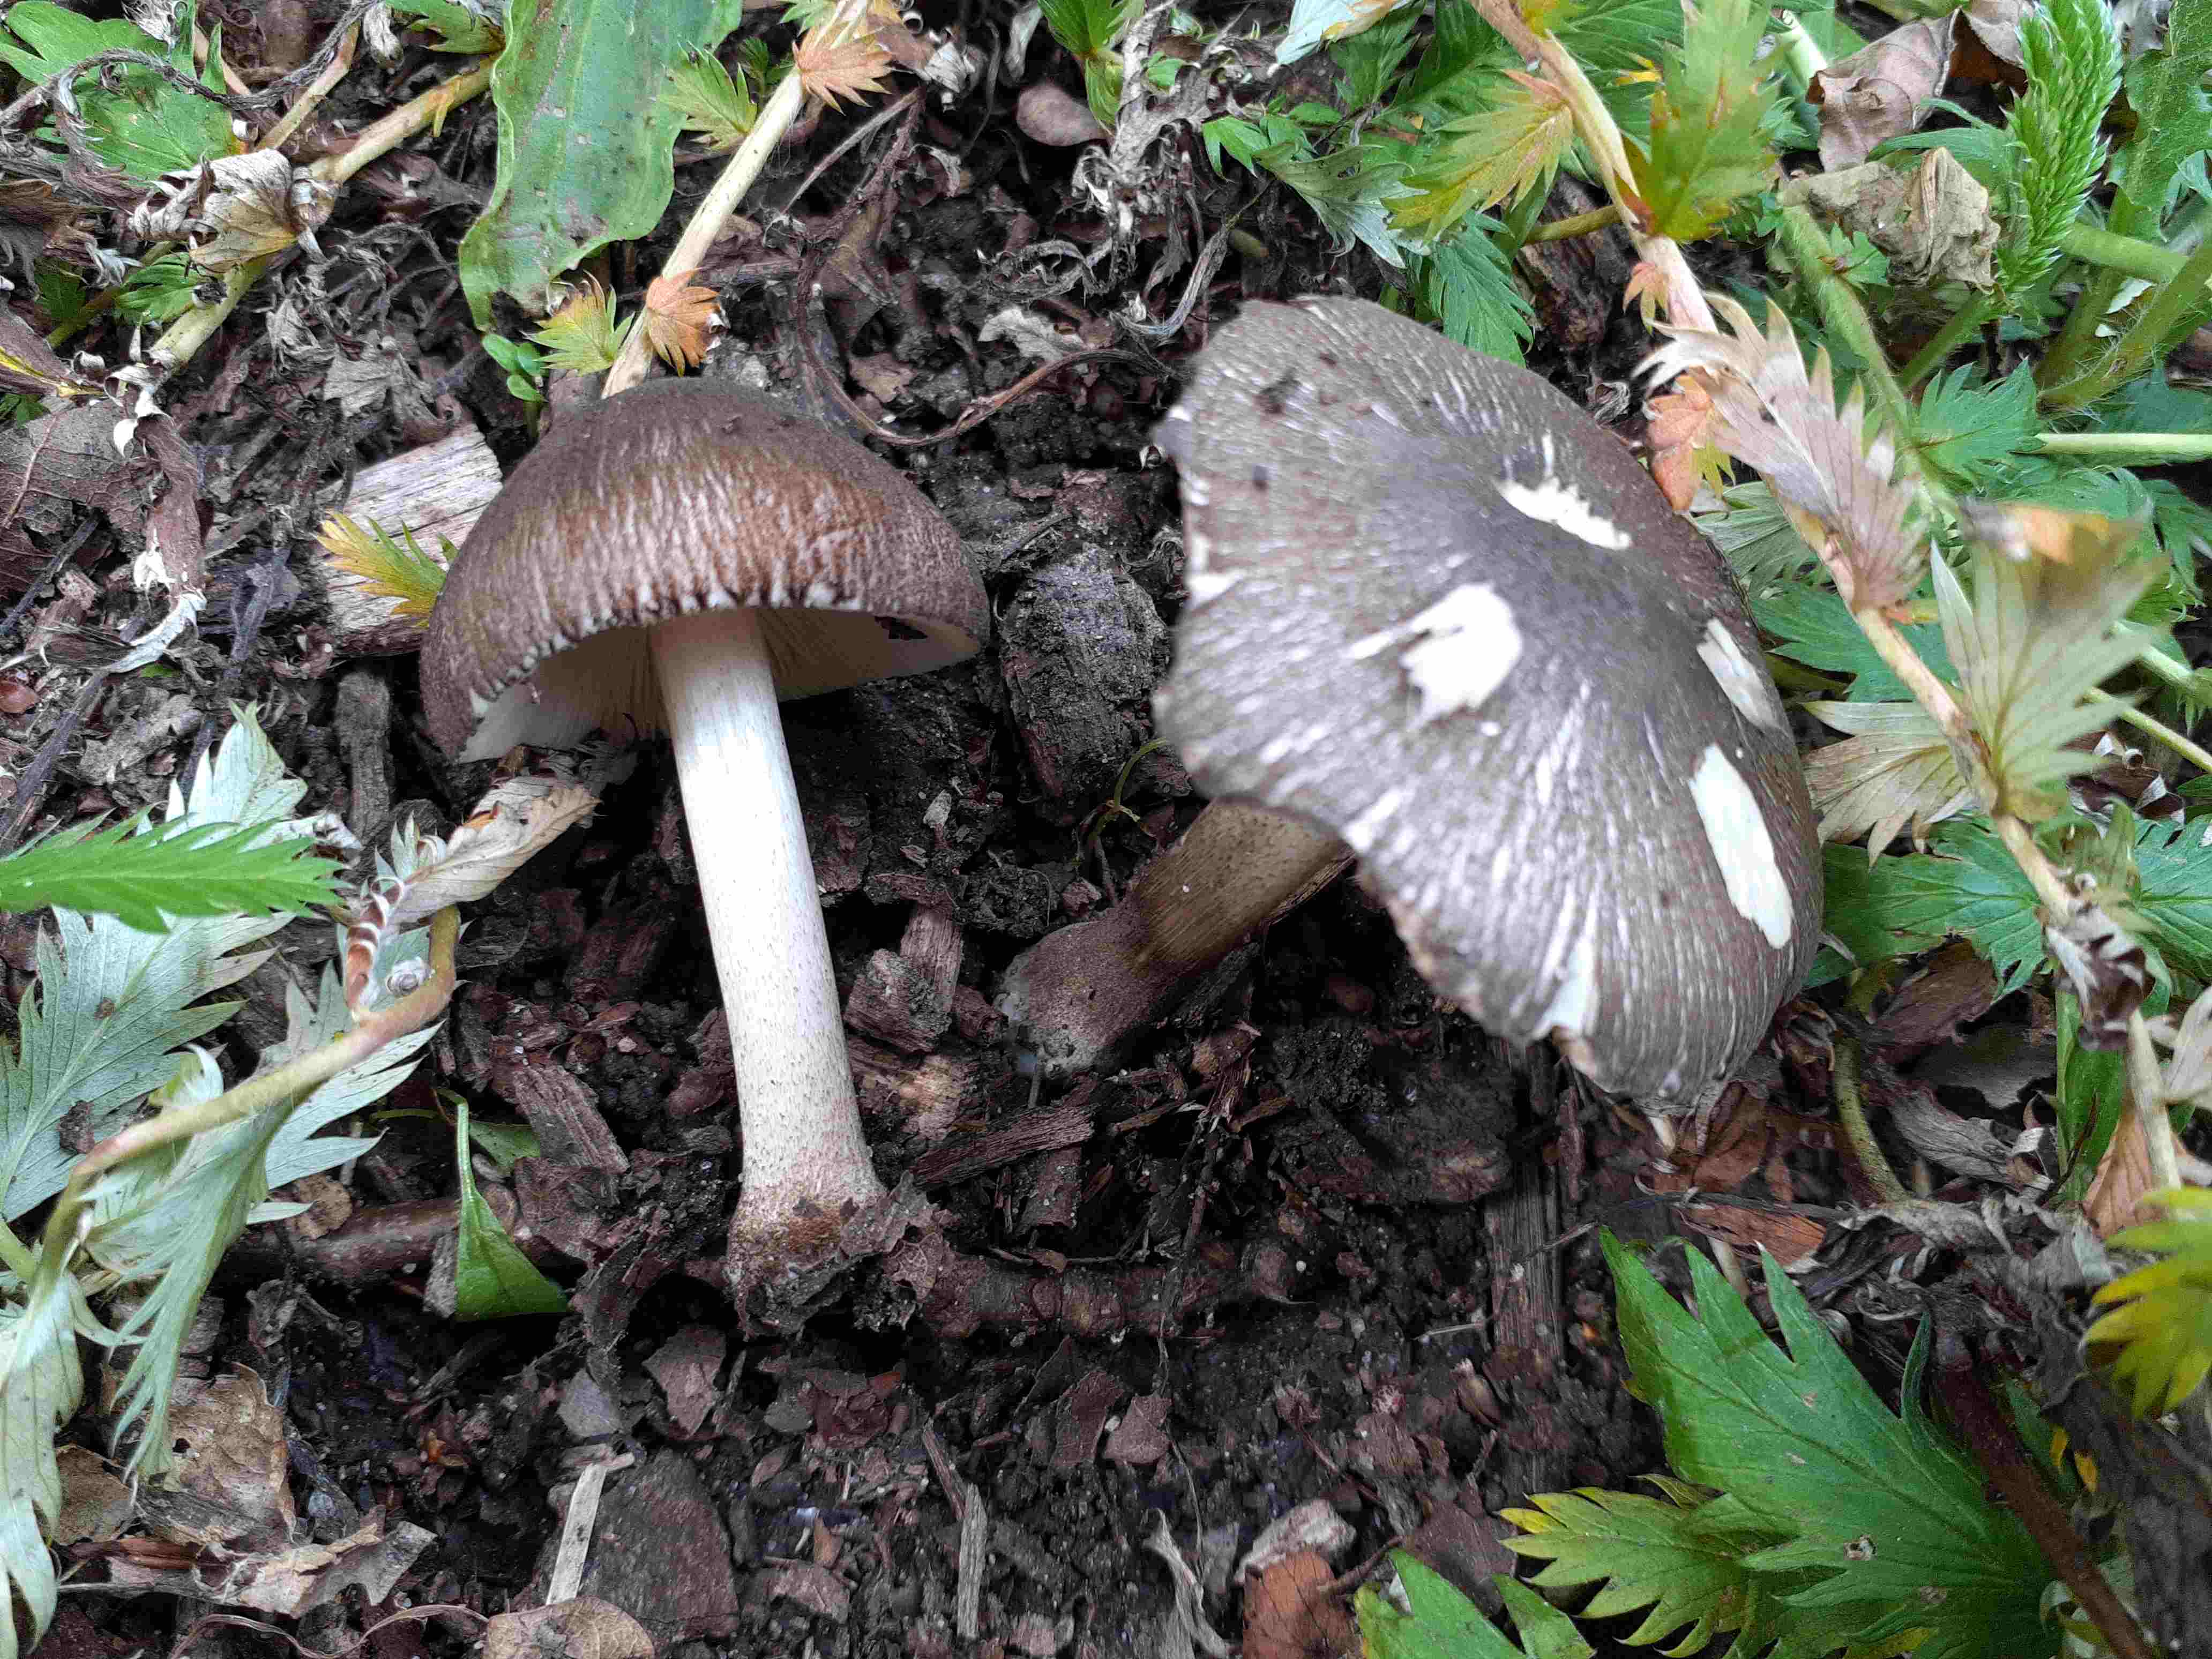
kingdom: Fungi
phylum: Basidiomycota
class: Agaricomycetes
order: Agaricales
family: Pluteaceae
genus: Pluteus
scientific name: Pluteus ephebeus
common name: Sooty shield
